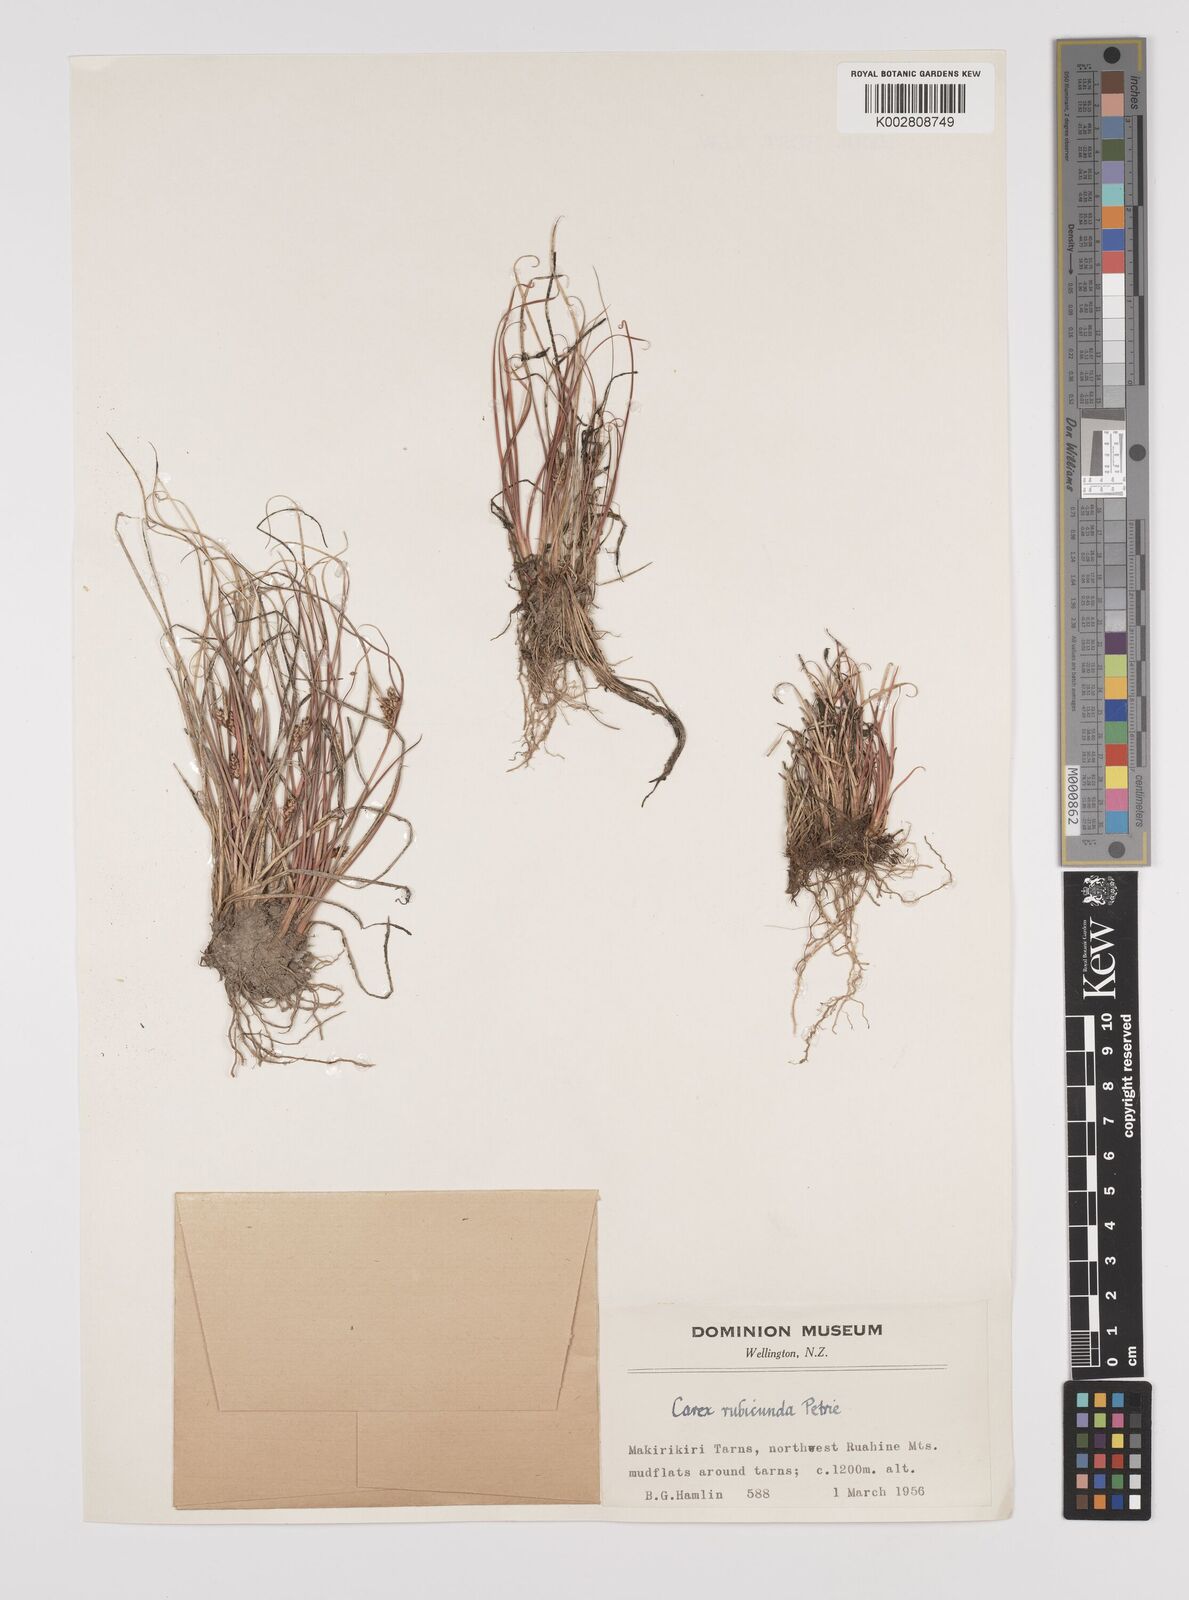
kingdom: Plantae
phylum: Tracheophyta
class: Liliopsida
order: Poales
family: Cyperaceae
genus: Carex
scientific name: Carex petriei
